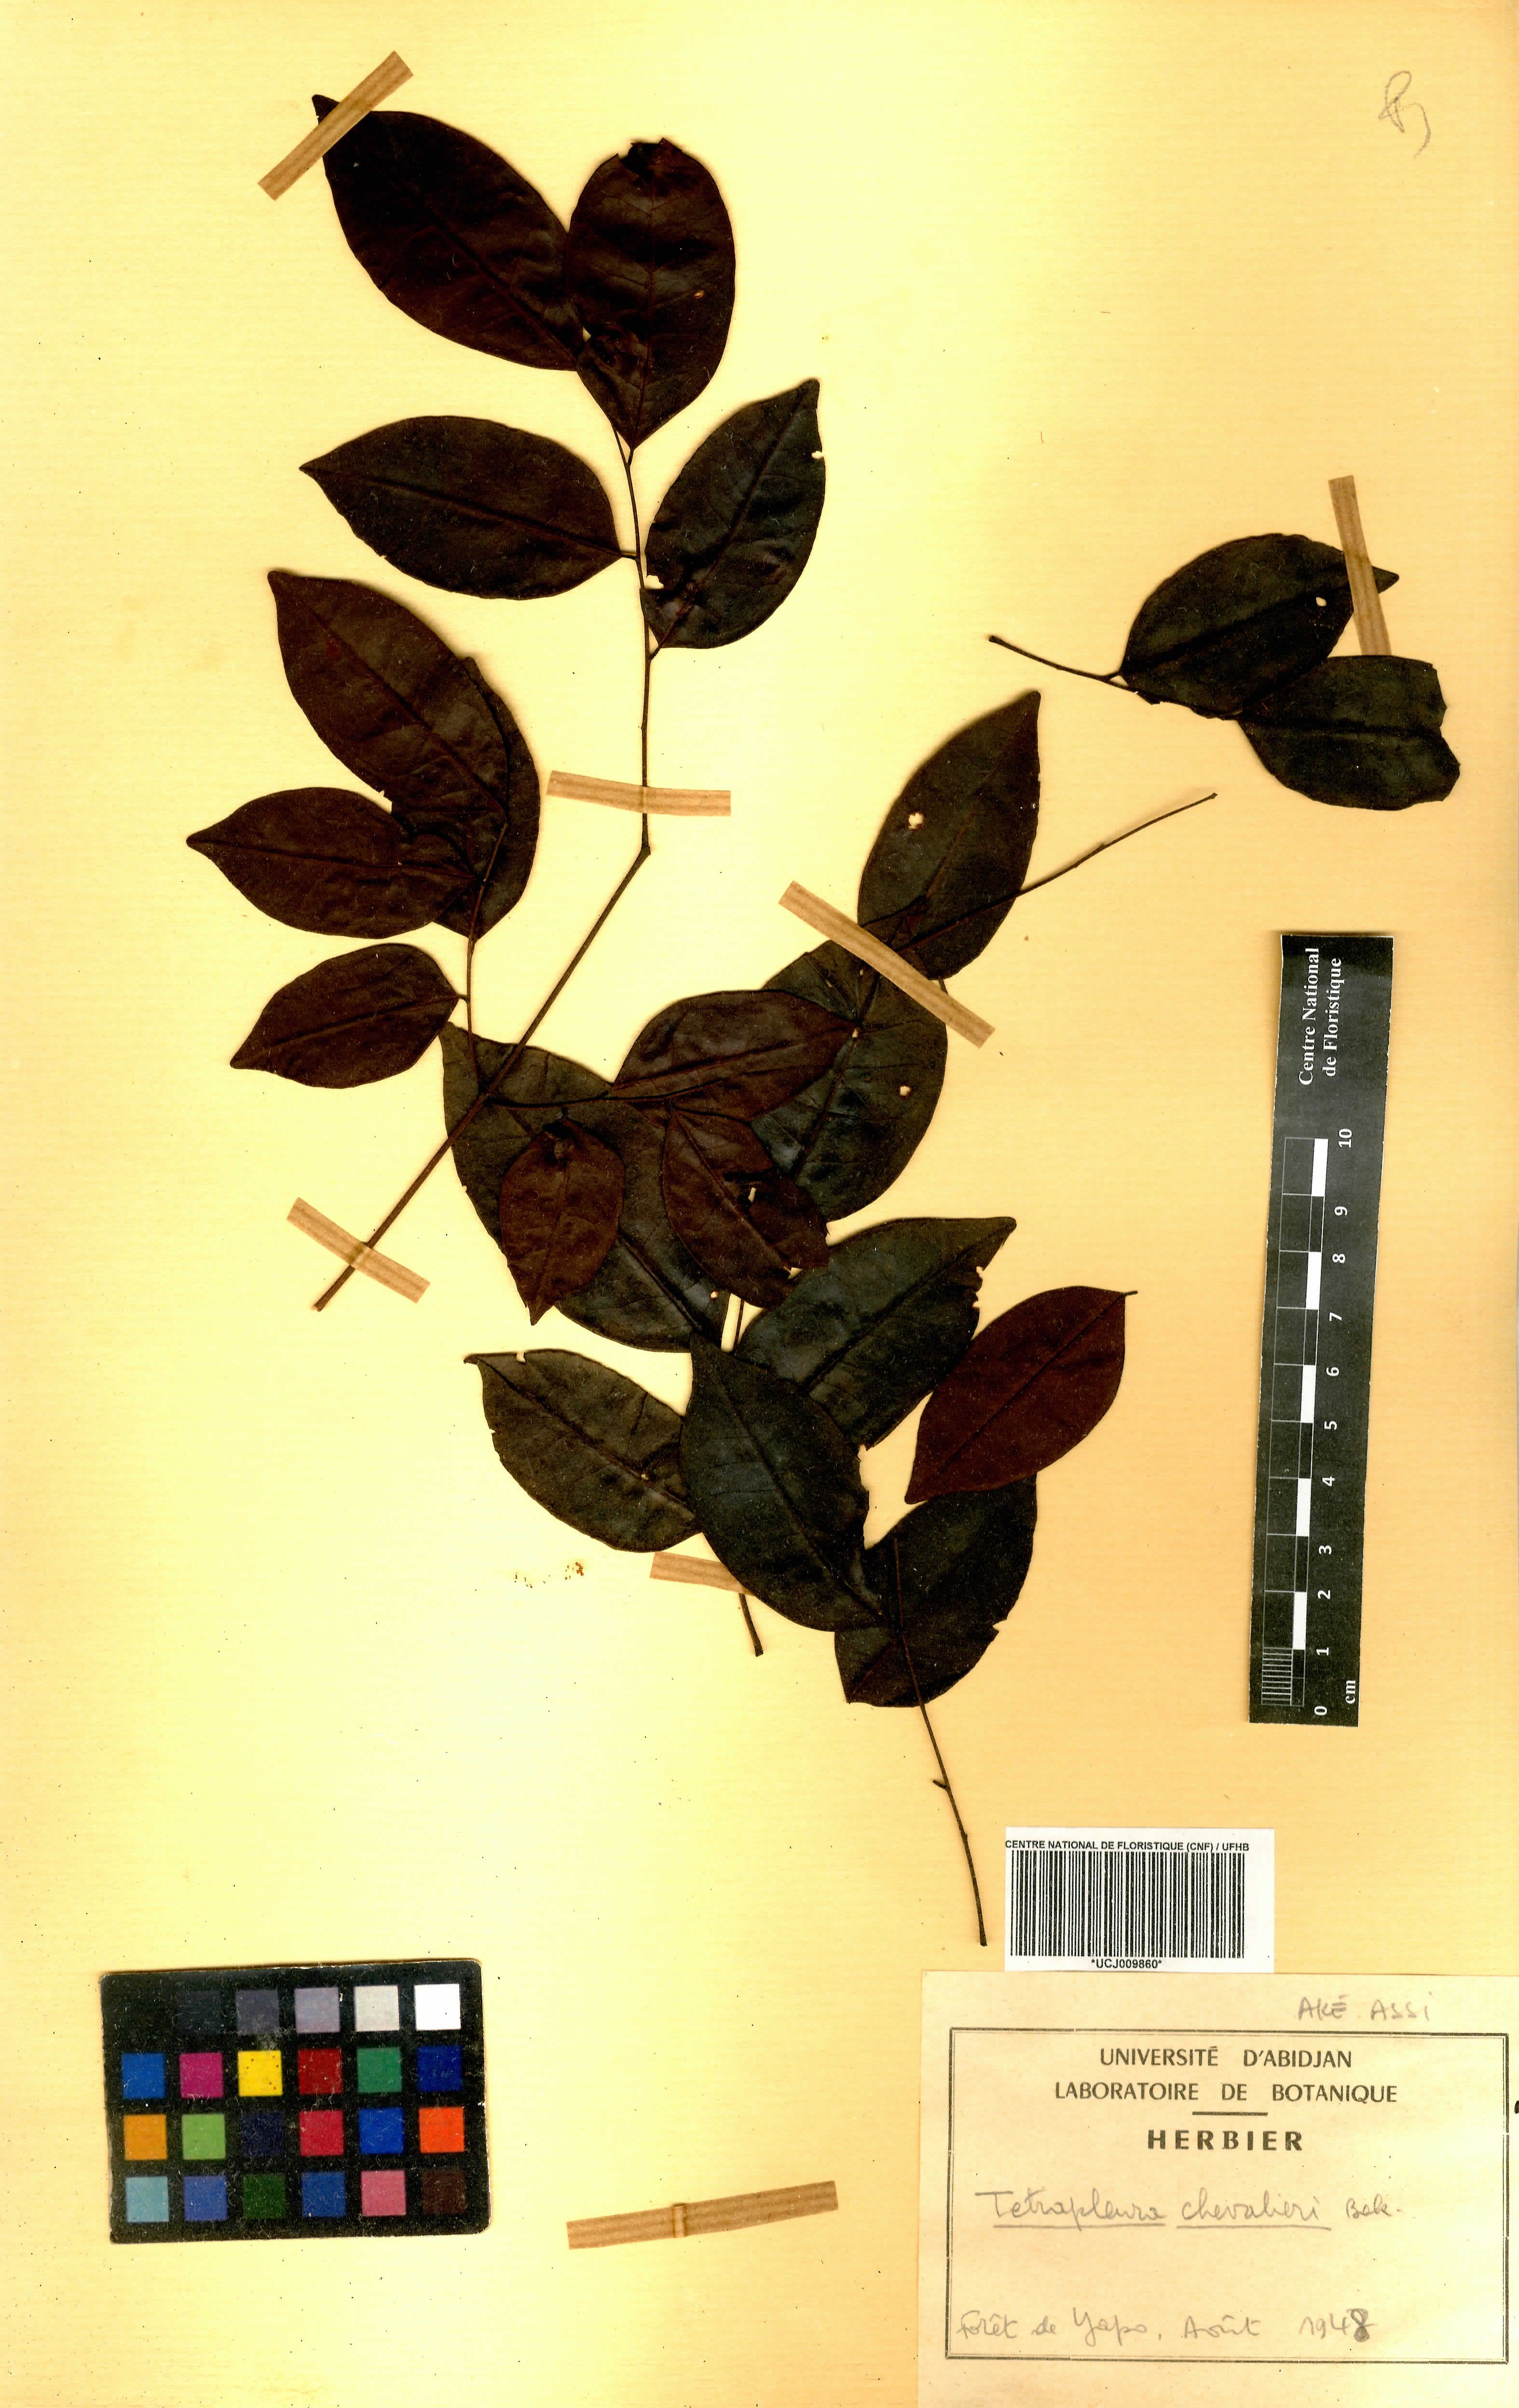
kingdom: Plantae
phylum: Tracheophyta
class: Magnoliopsida
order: Fabales
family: Fabaceae
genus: Tetrapleura
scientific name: Tetrapleura tetraptera
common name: Aridan
